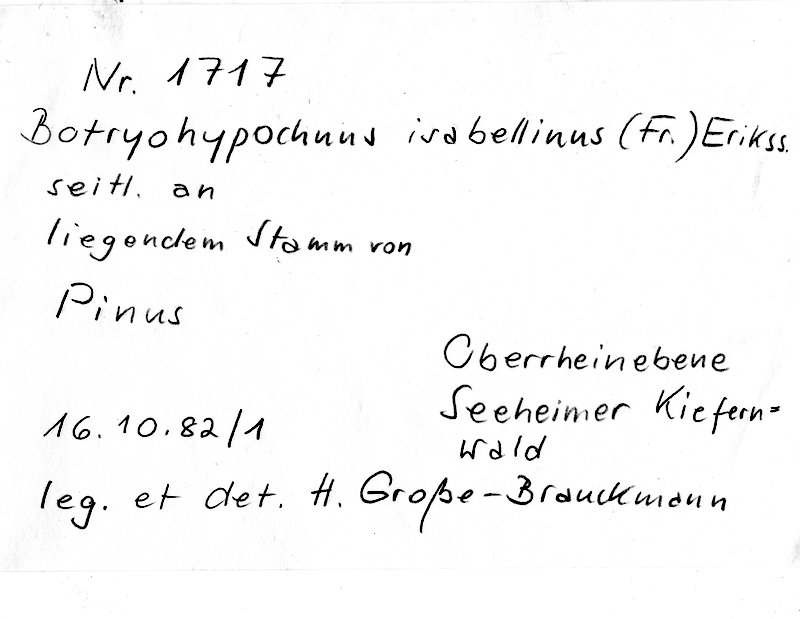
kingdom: Plantae
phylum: Tracheophyta
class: Pinopsida
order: Pinales
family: Pinaceae
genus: Pinus
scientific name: Pinus
